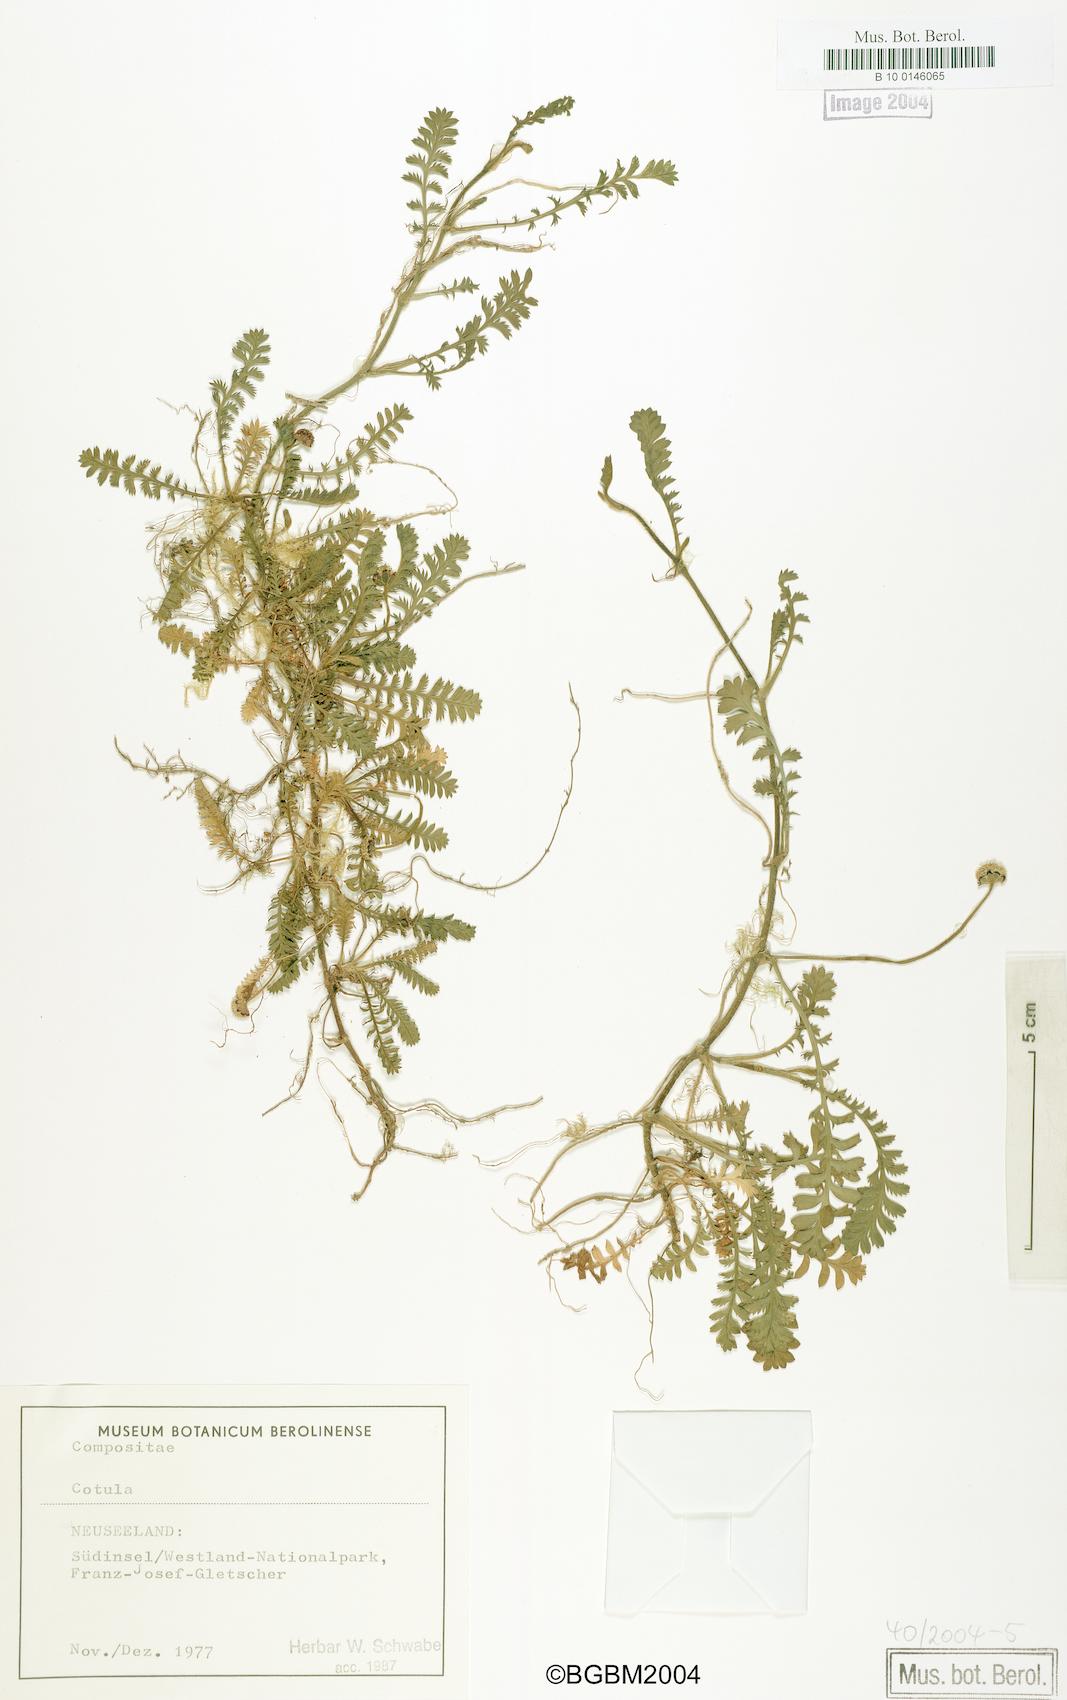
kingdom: Plantae
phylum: Tracheophyta
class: Magnoliopsida
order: Asterales
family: Asteraceae
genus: Cotula
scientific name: Cotula
